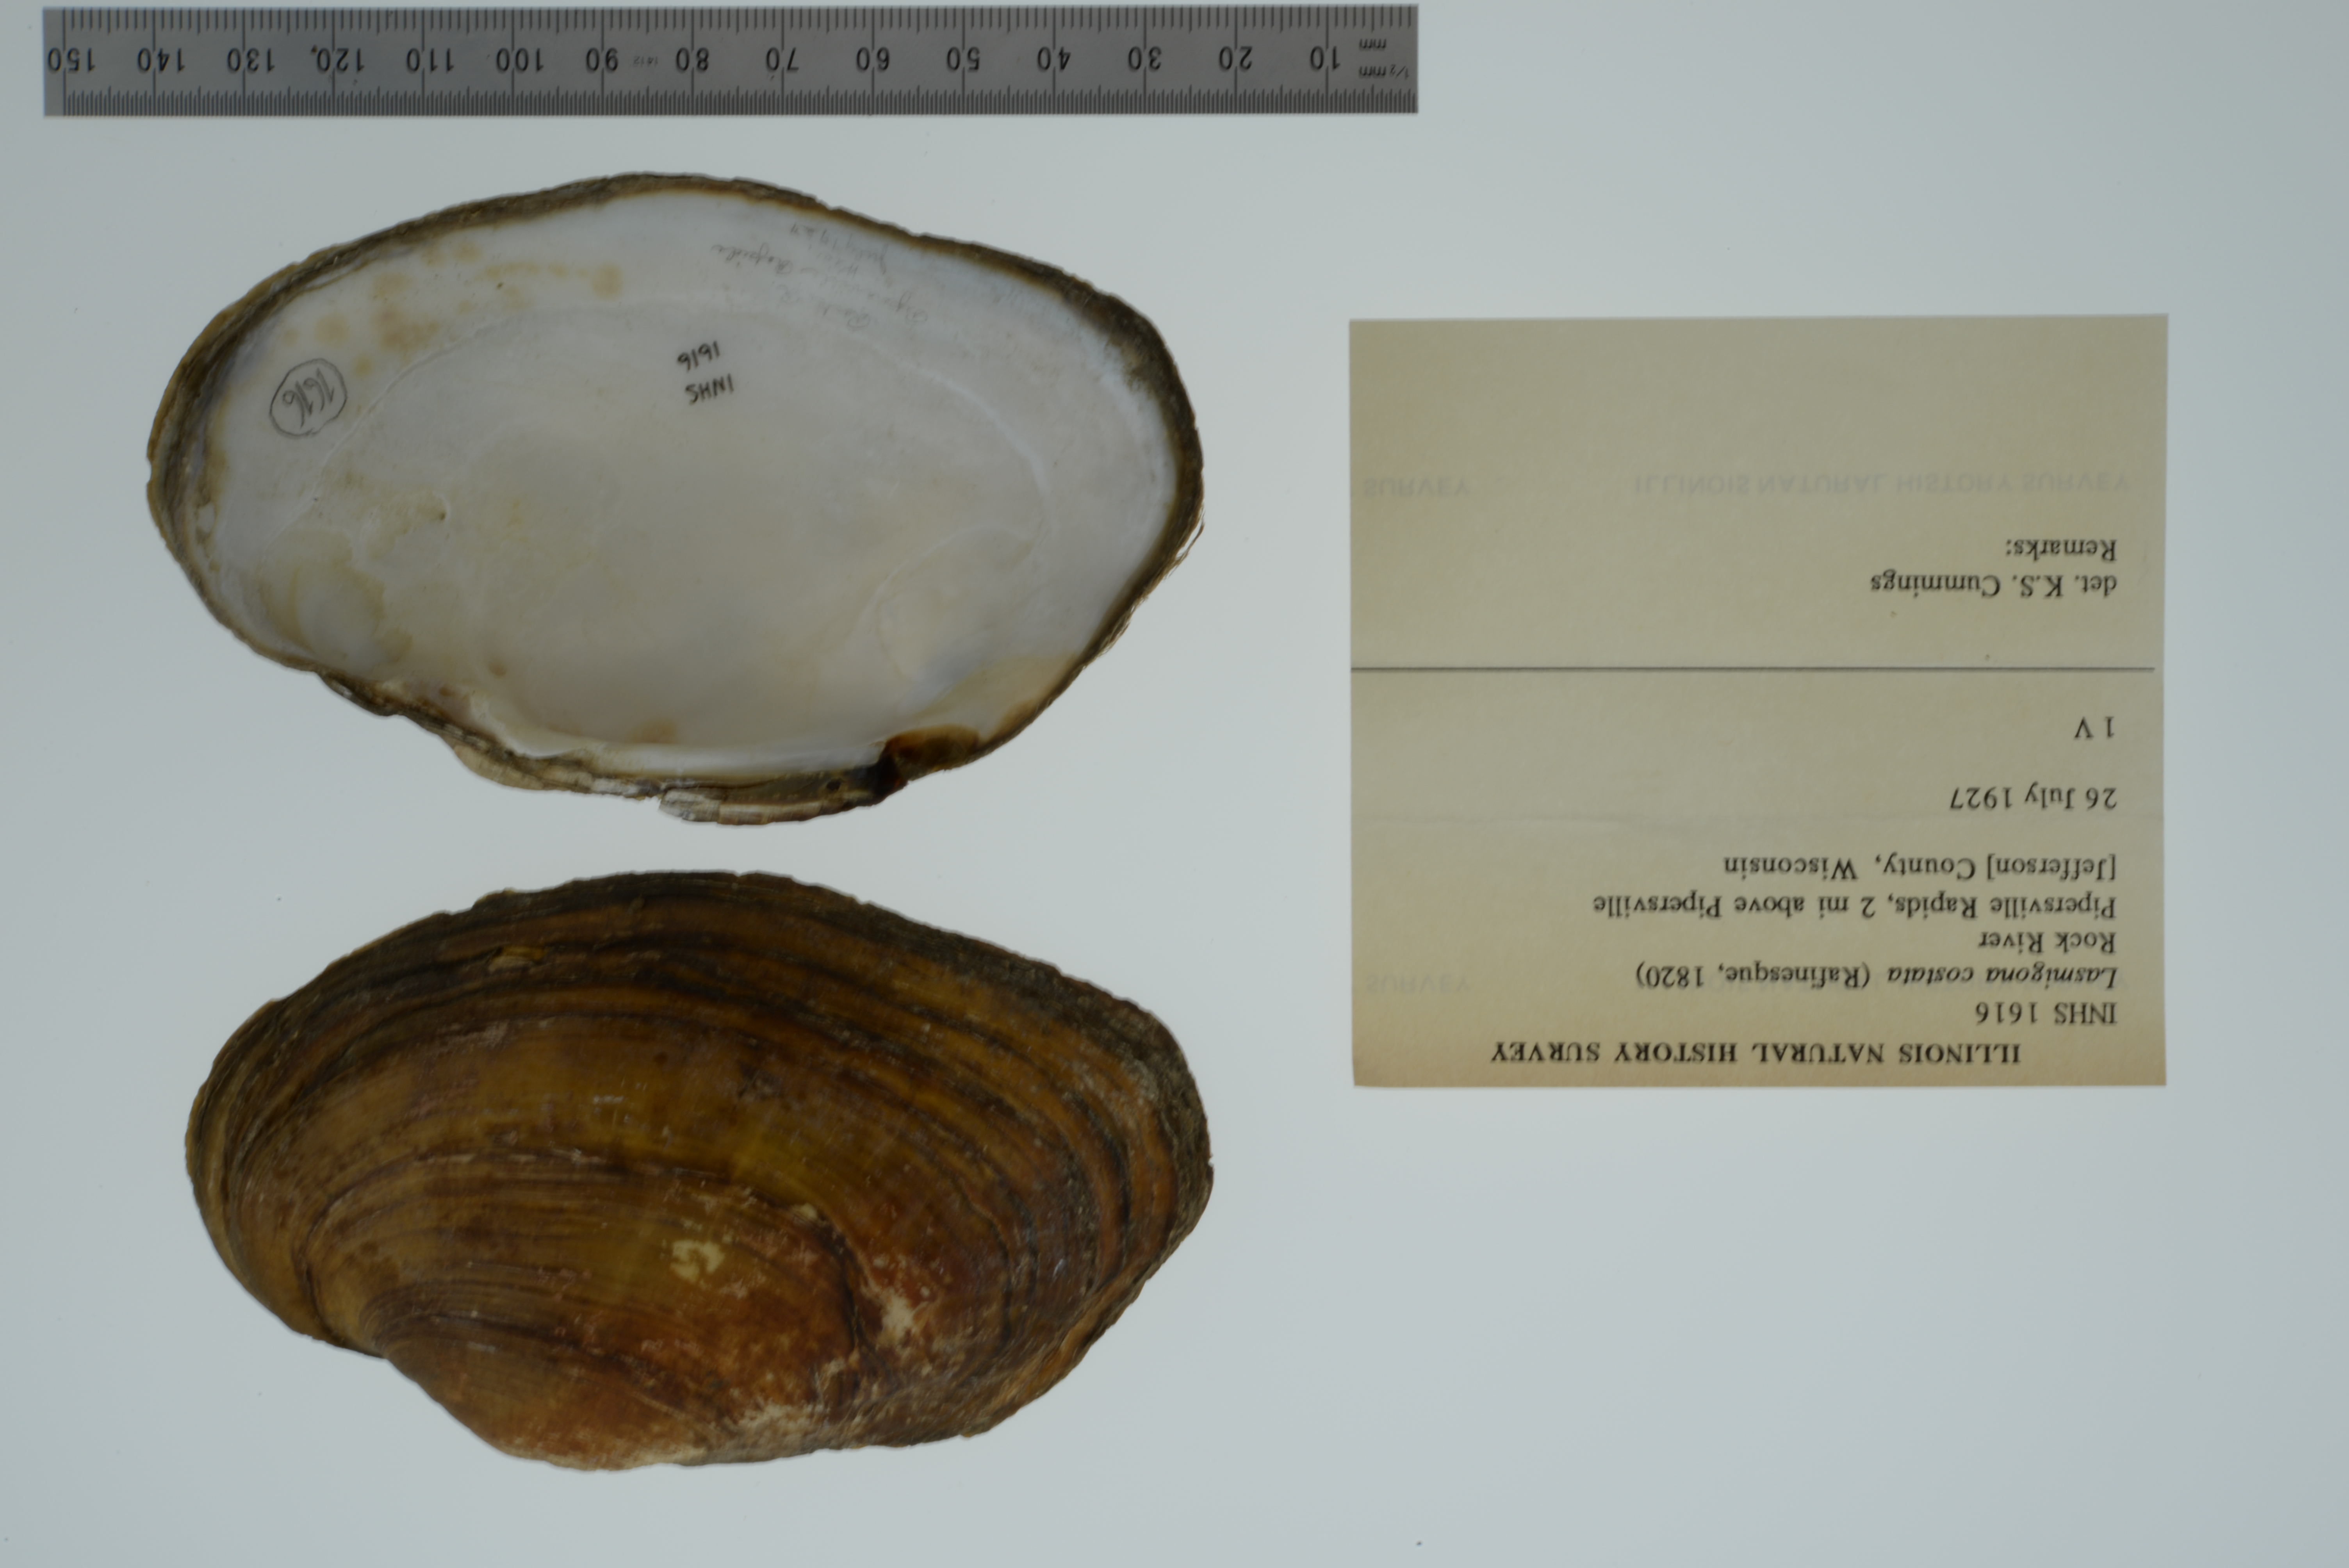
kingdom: Animalia
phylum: Mollusca
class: Bivalvia
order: Unionida
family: Unionidae
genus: Lasmigona
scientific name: Lasmigona compressa
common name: Creek heelsplitter
